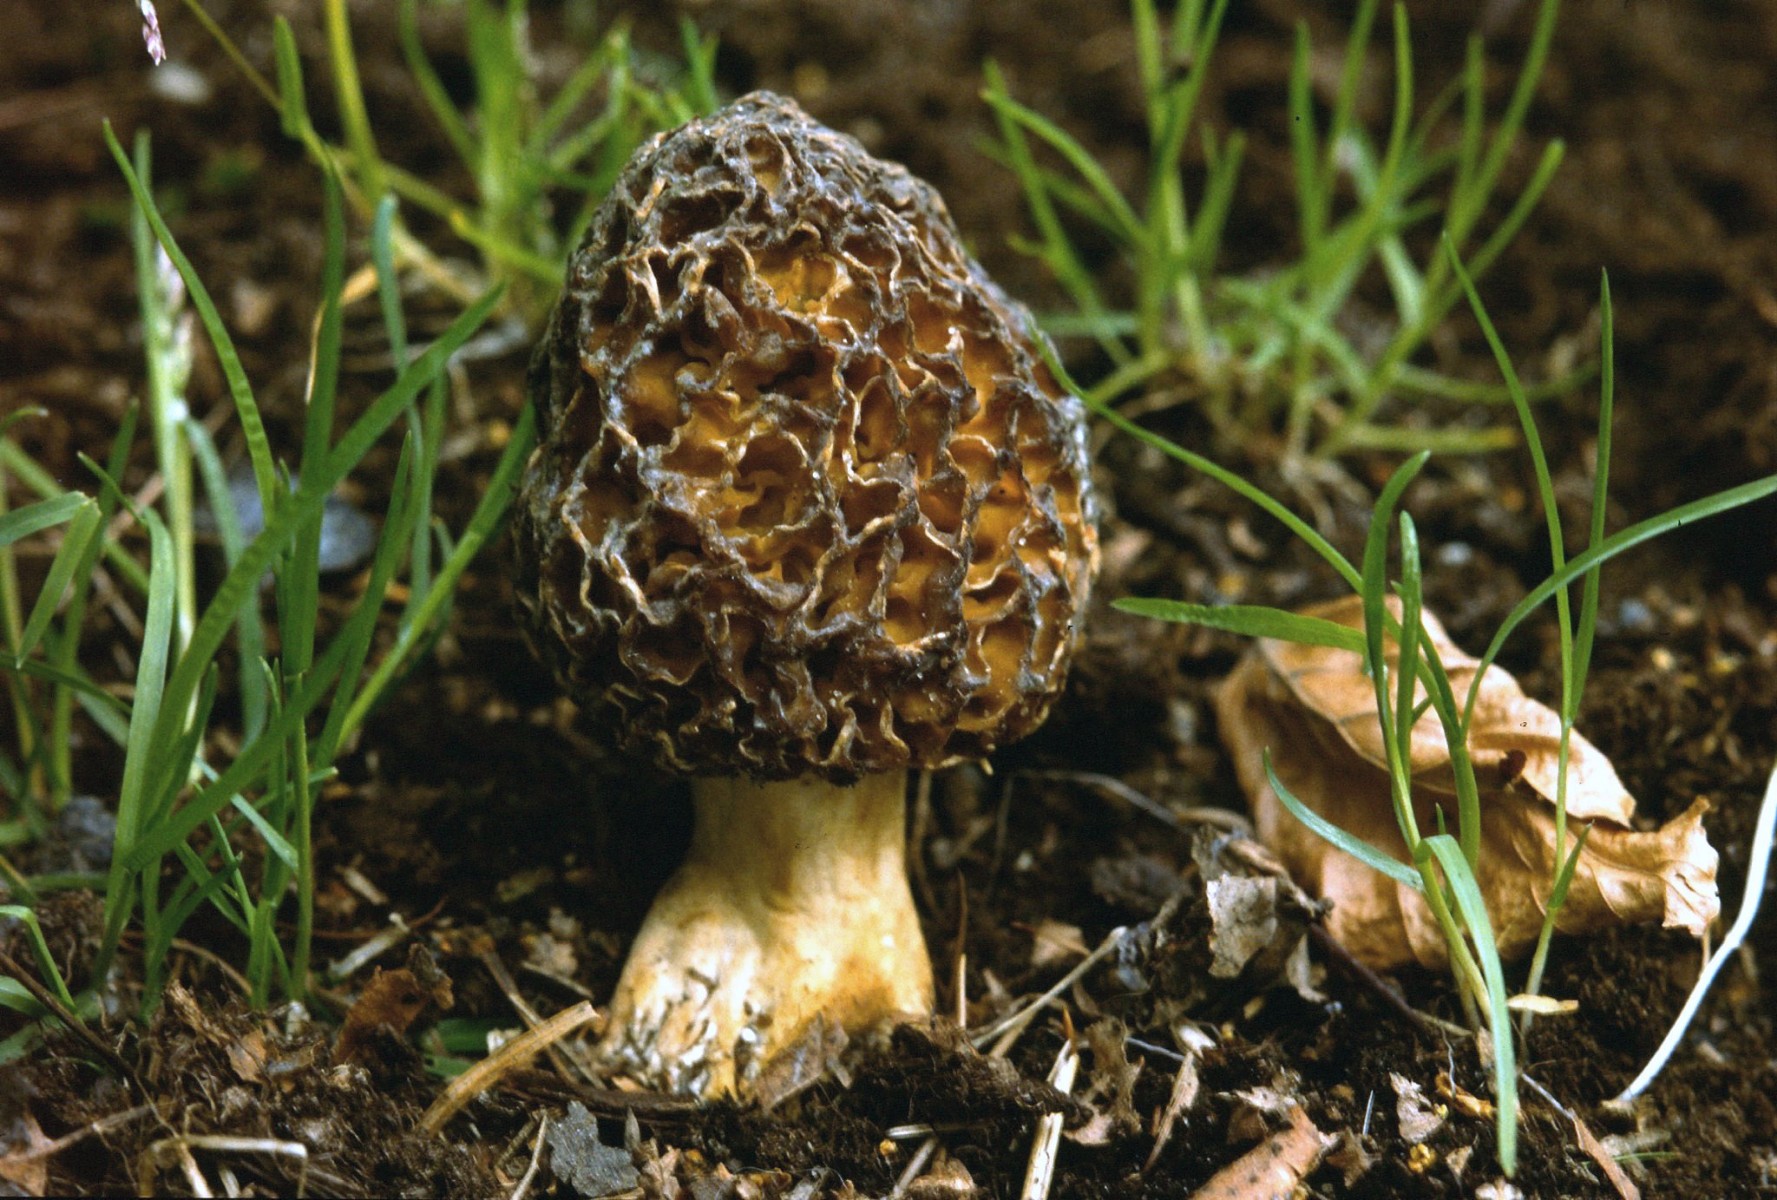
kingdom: Fungi
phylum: Ascomycota
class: Pezizomycetes
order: Pezizales
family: Morchellaceae
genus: Morchella
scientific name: Morchella esculenta
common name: almindelig morkel
